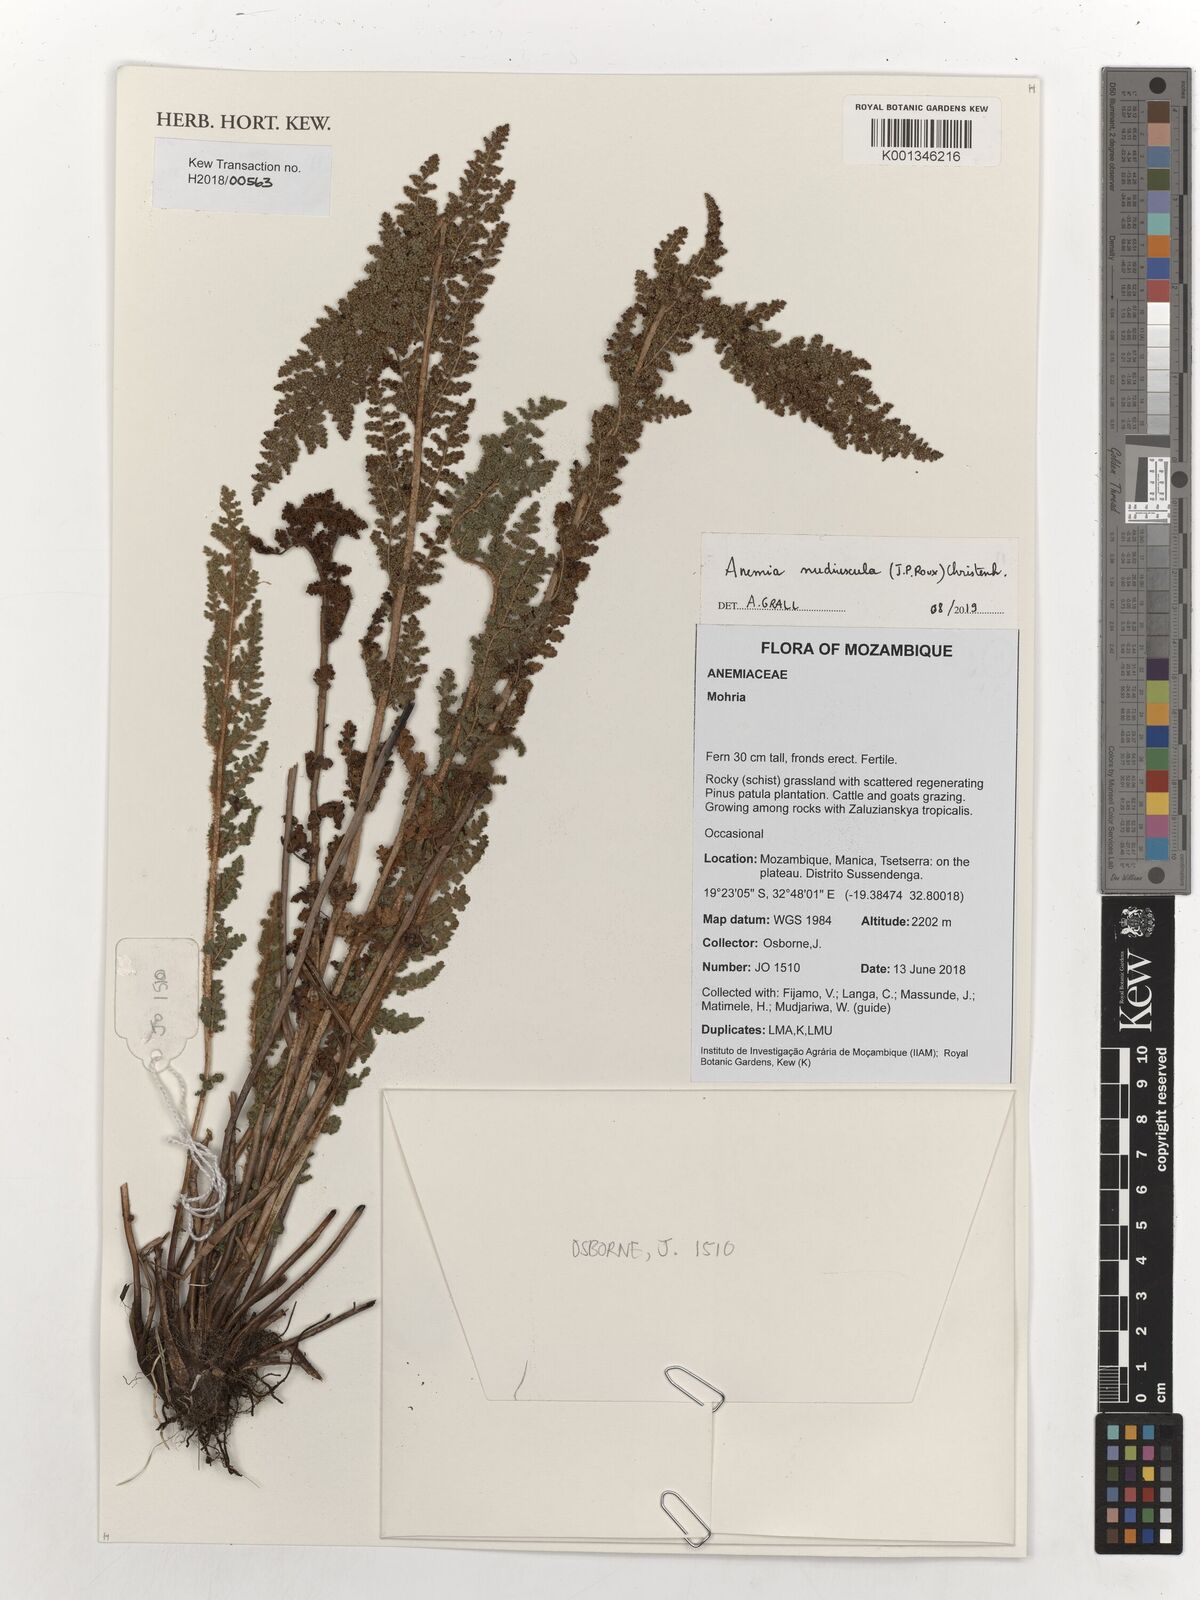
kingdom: Plantae
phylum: Tracheophyta
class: Polypodiopsida
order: Schizaeales
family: Anemiaceae
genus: Anemia
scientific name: Anemia nudiuscula
